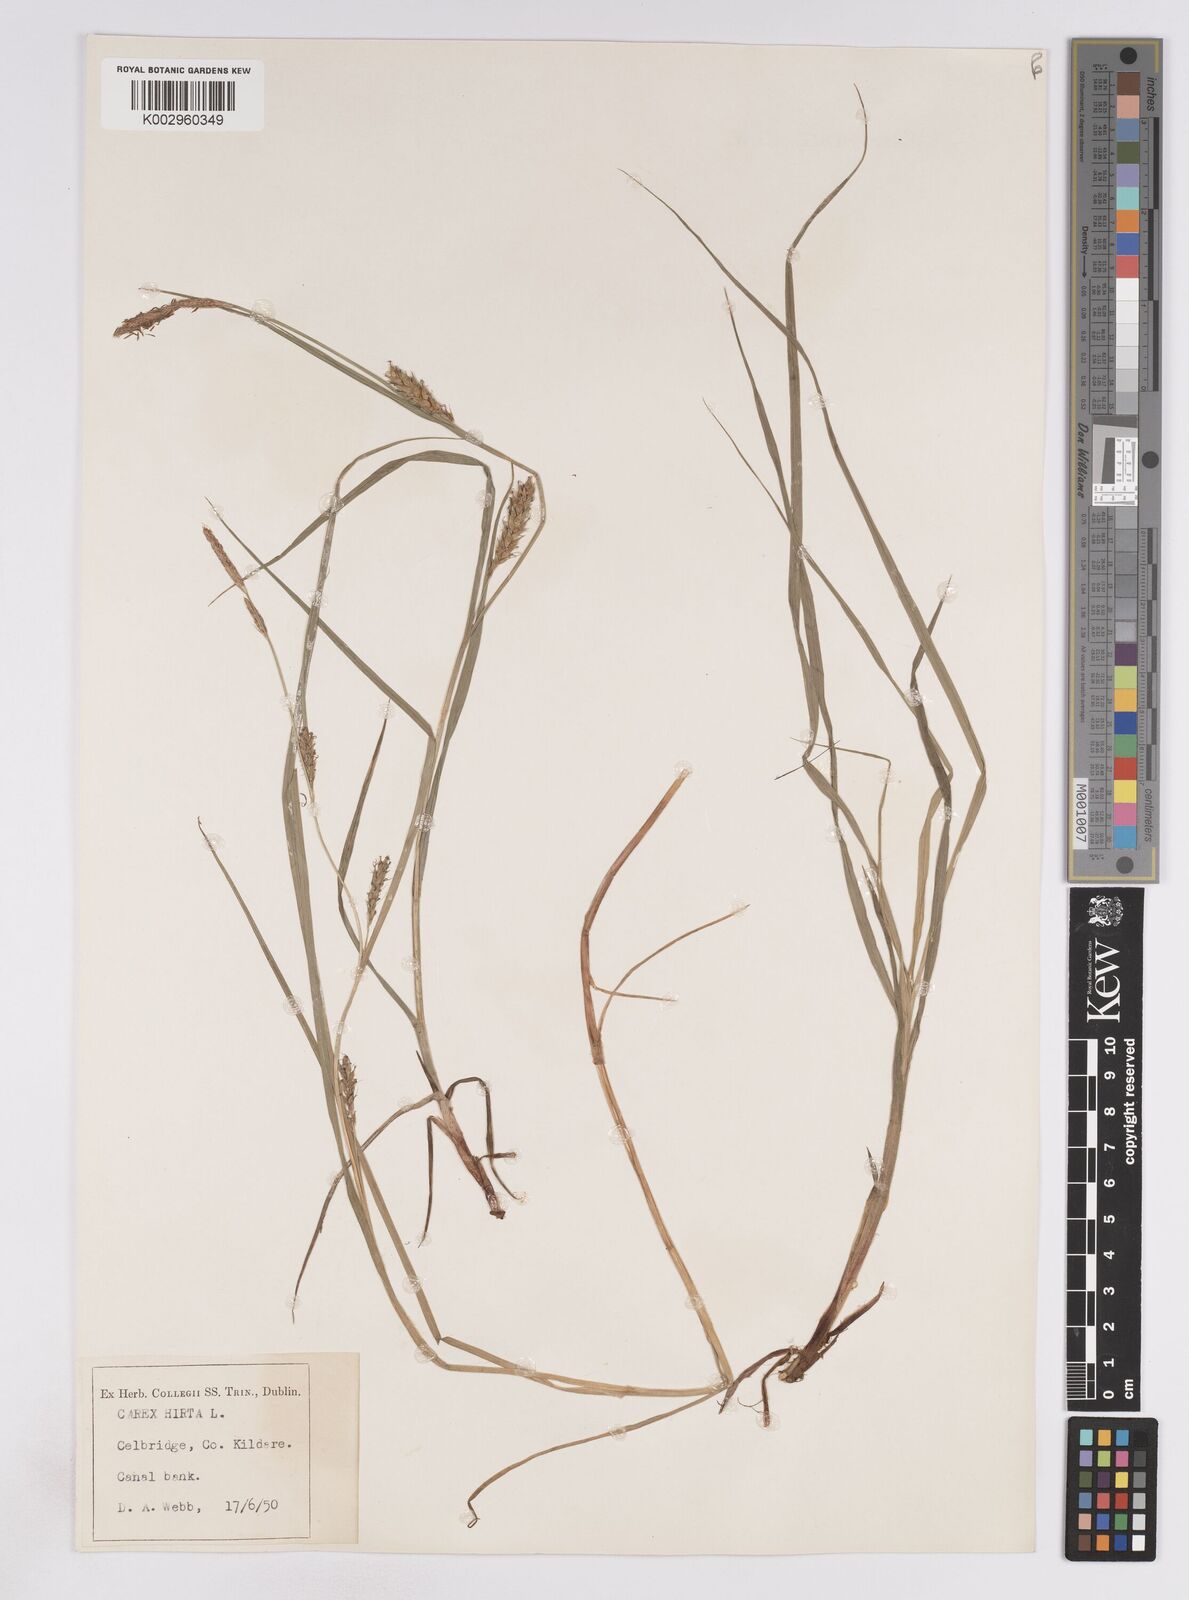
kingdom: Plantae
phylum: Tracheophyta
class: Liliopsida
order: Poales
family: Cyperaceae
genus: Carex
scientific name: Carex vesicaria
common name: Bladder-sedge
